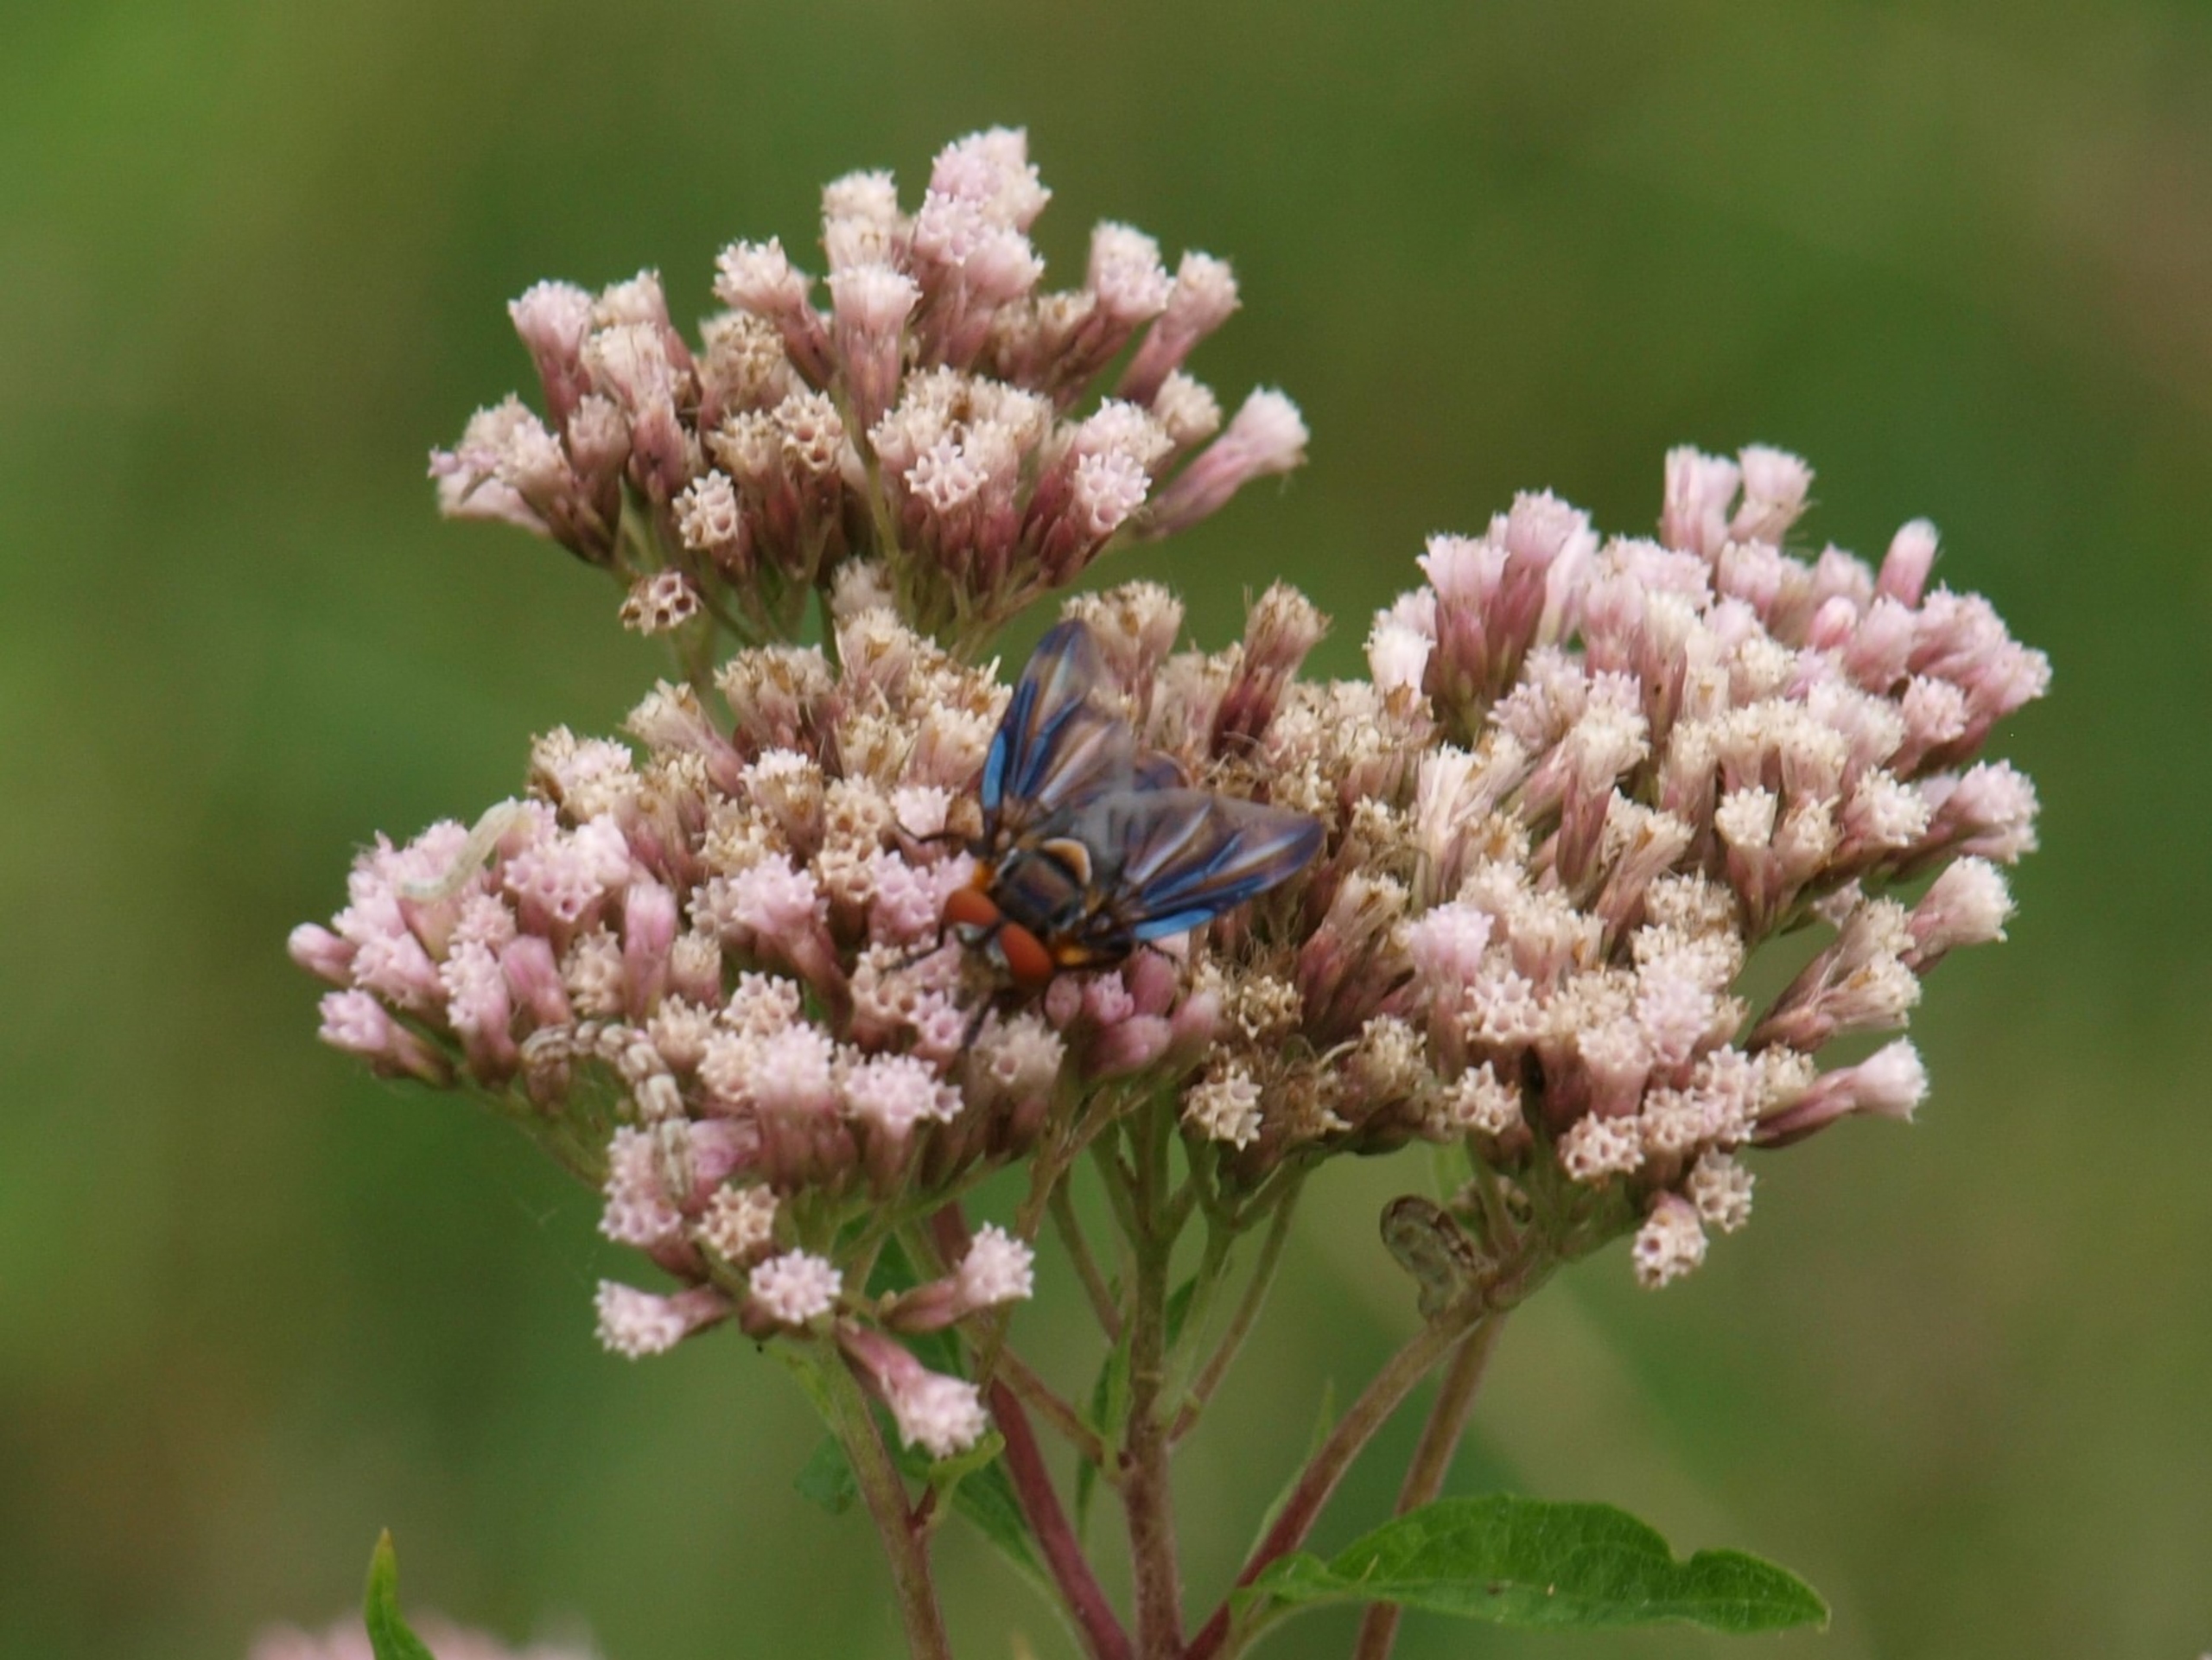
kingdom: Animalia
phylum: Arthropoda
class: Insecta
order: Diptera
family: Tachinidae
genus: Phasia
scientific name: Phasia hemiptera
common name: Blåvinget pragtsnylteflue
